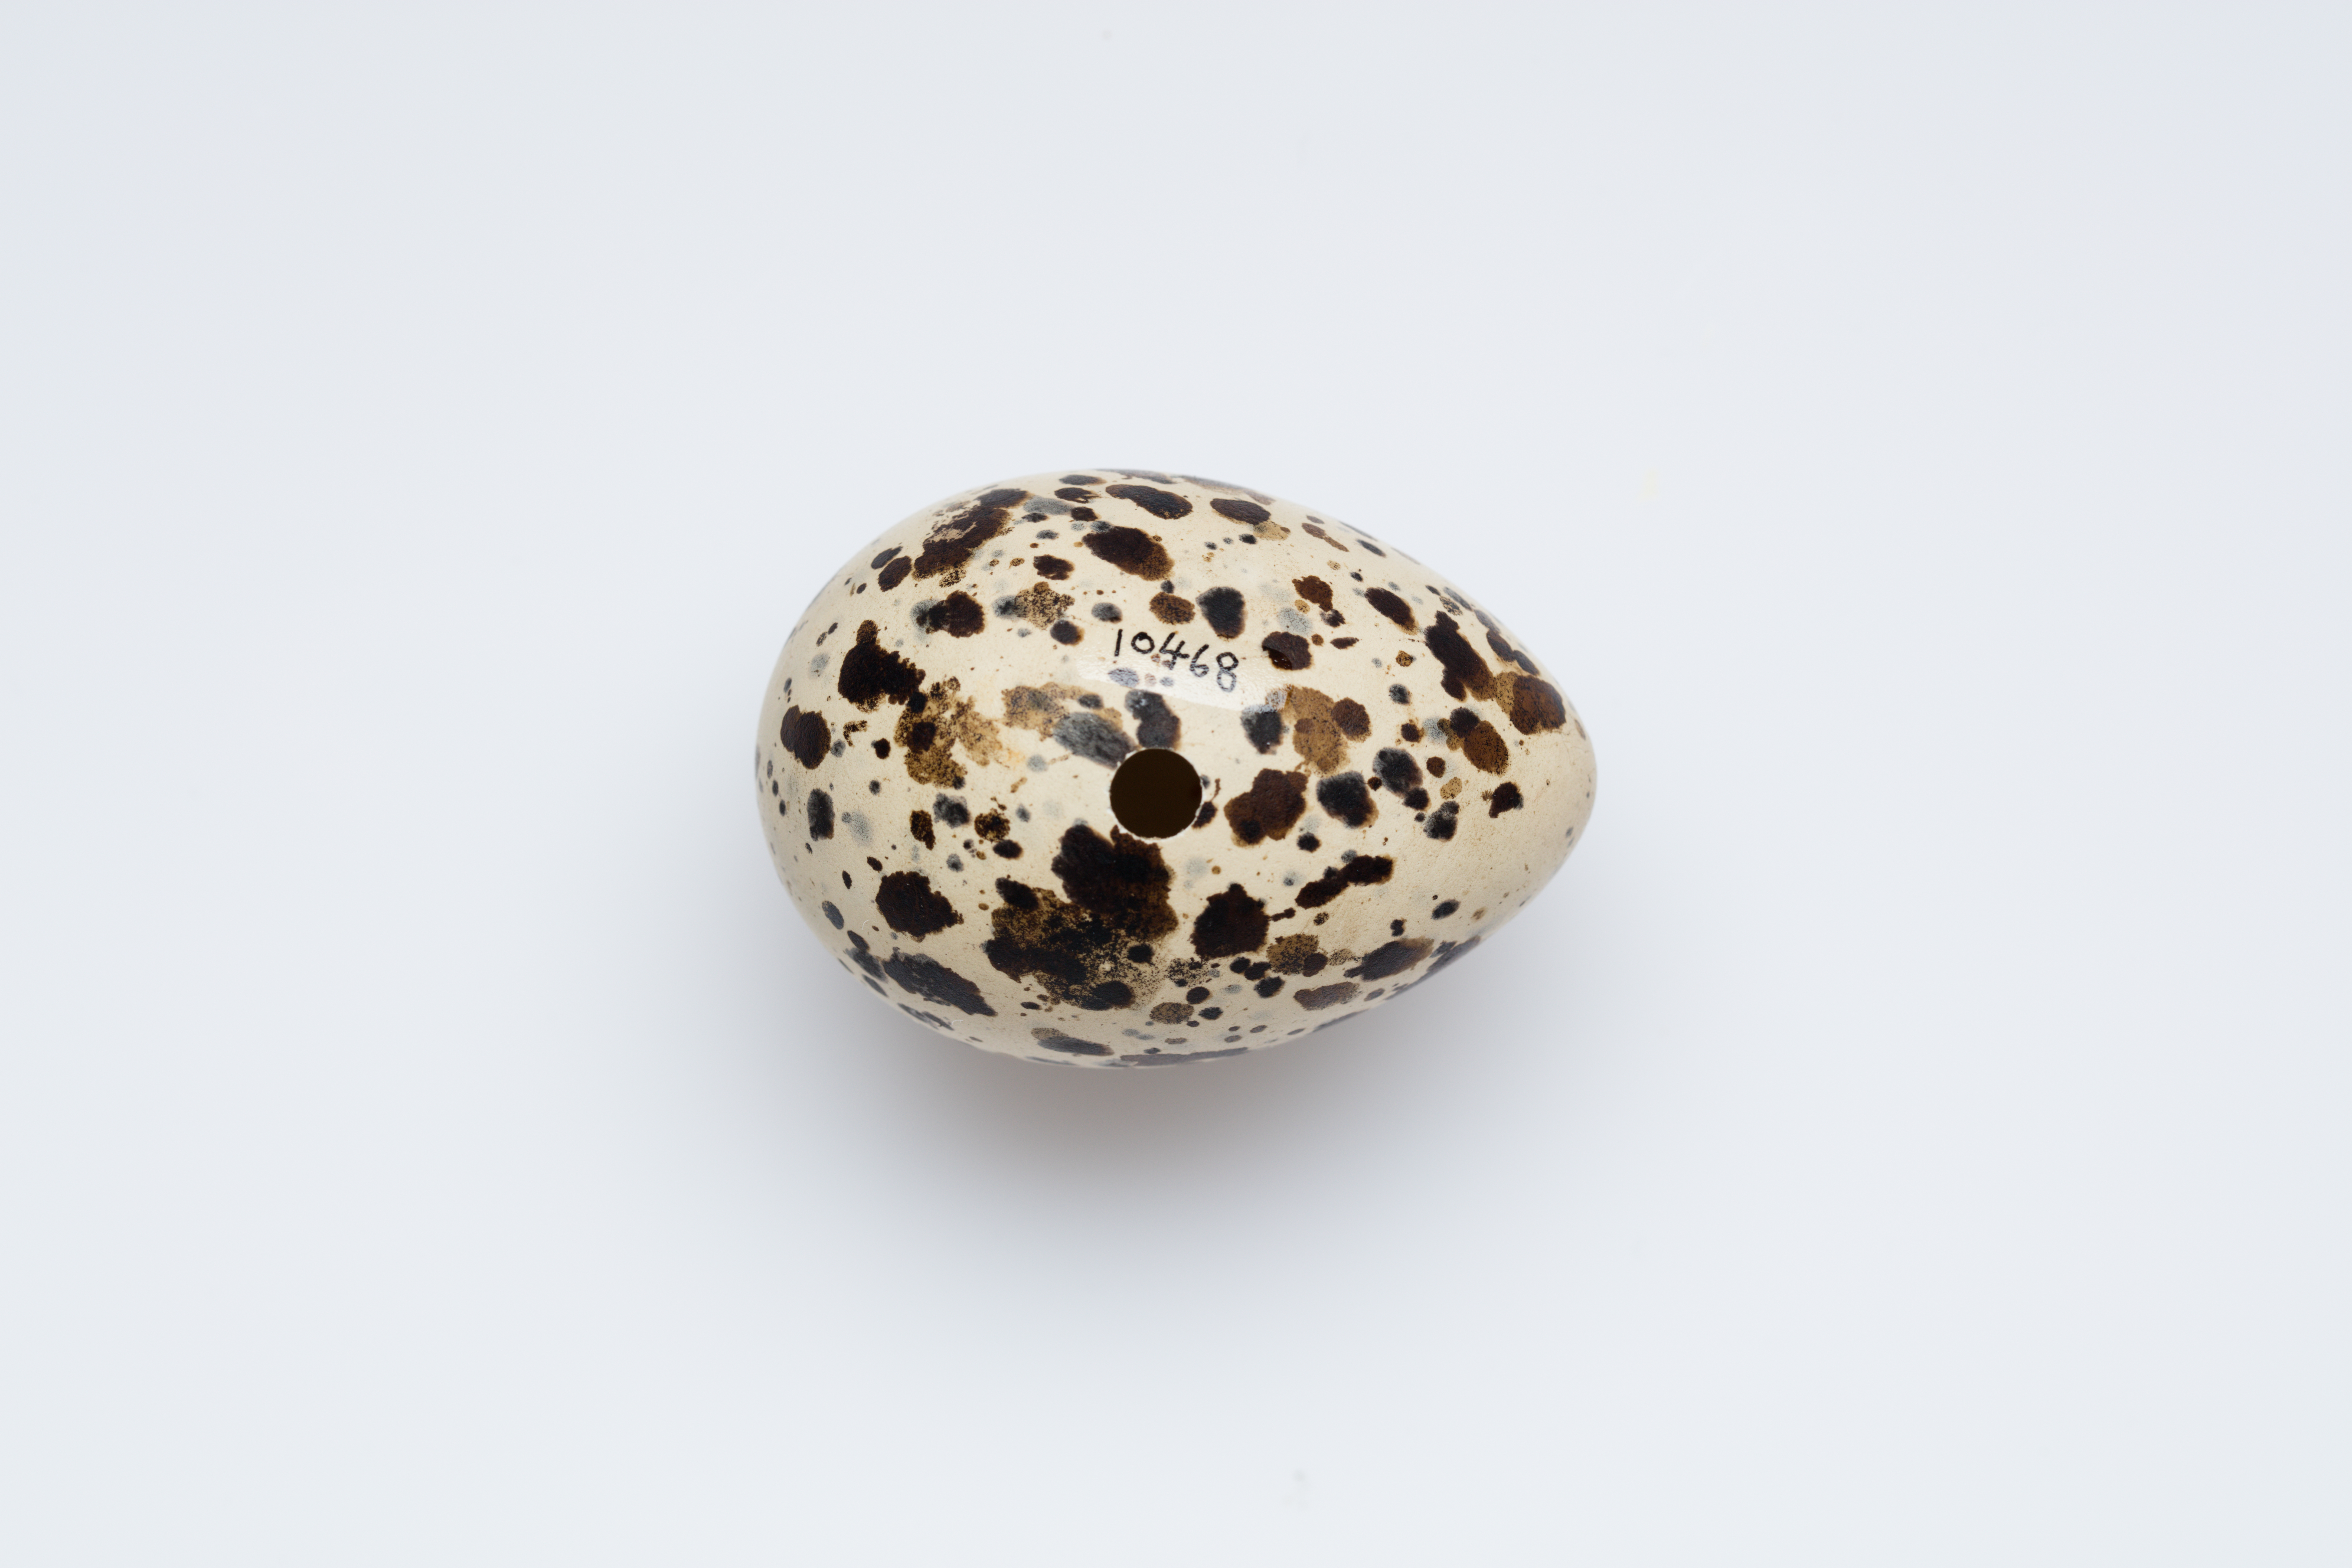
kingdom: Animalia
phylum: Chordata
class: Aves
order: Charadriiformes
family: Laridae
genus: Thalasseus
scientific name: Thalasseus sandvicensis
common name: Sandwich tern
